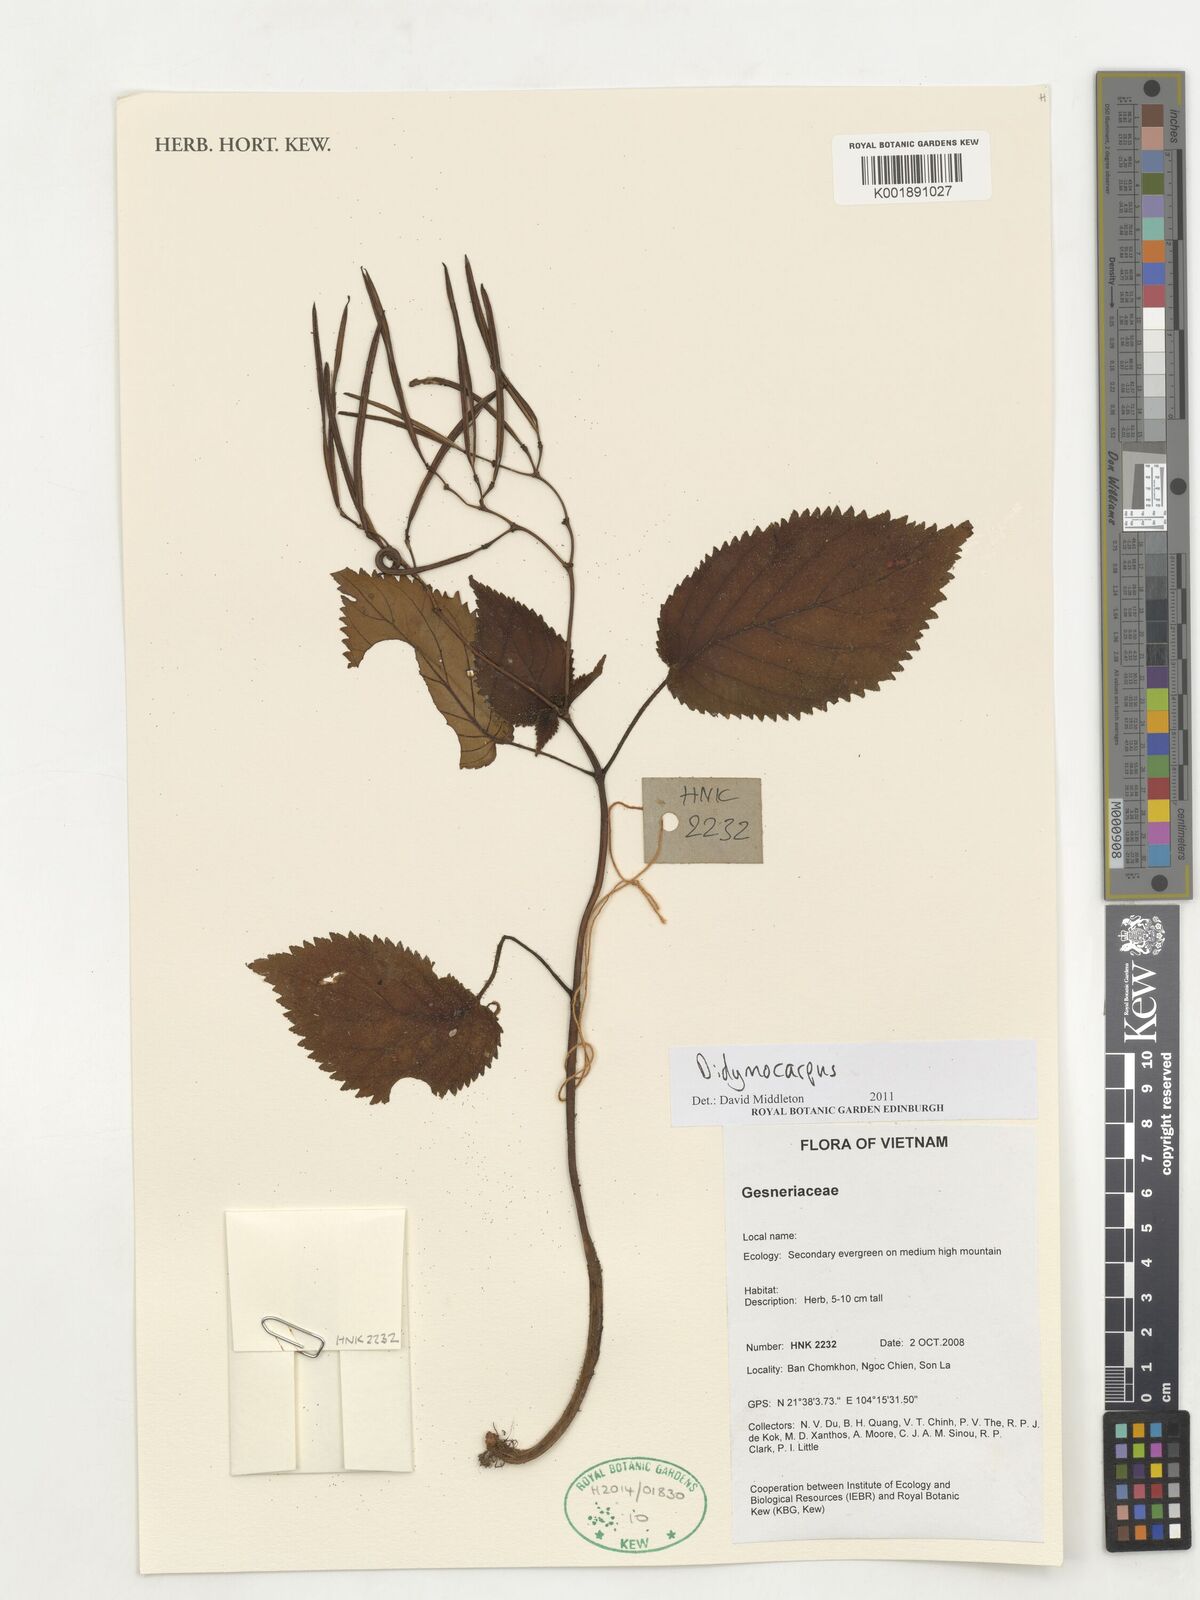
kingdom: Plantae
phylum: Tracheophyta
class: Magnoliopsida
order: Lamiales
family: Gesneriaceae
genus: Didymocarpus
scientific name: Didymocarpus
